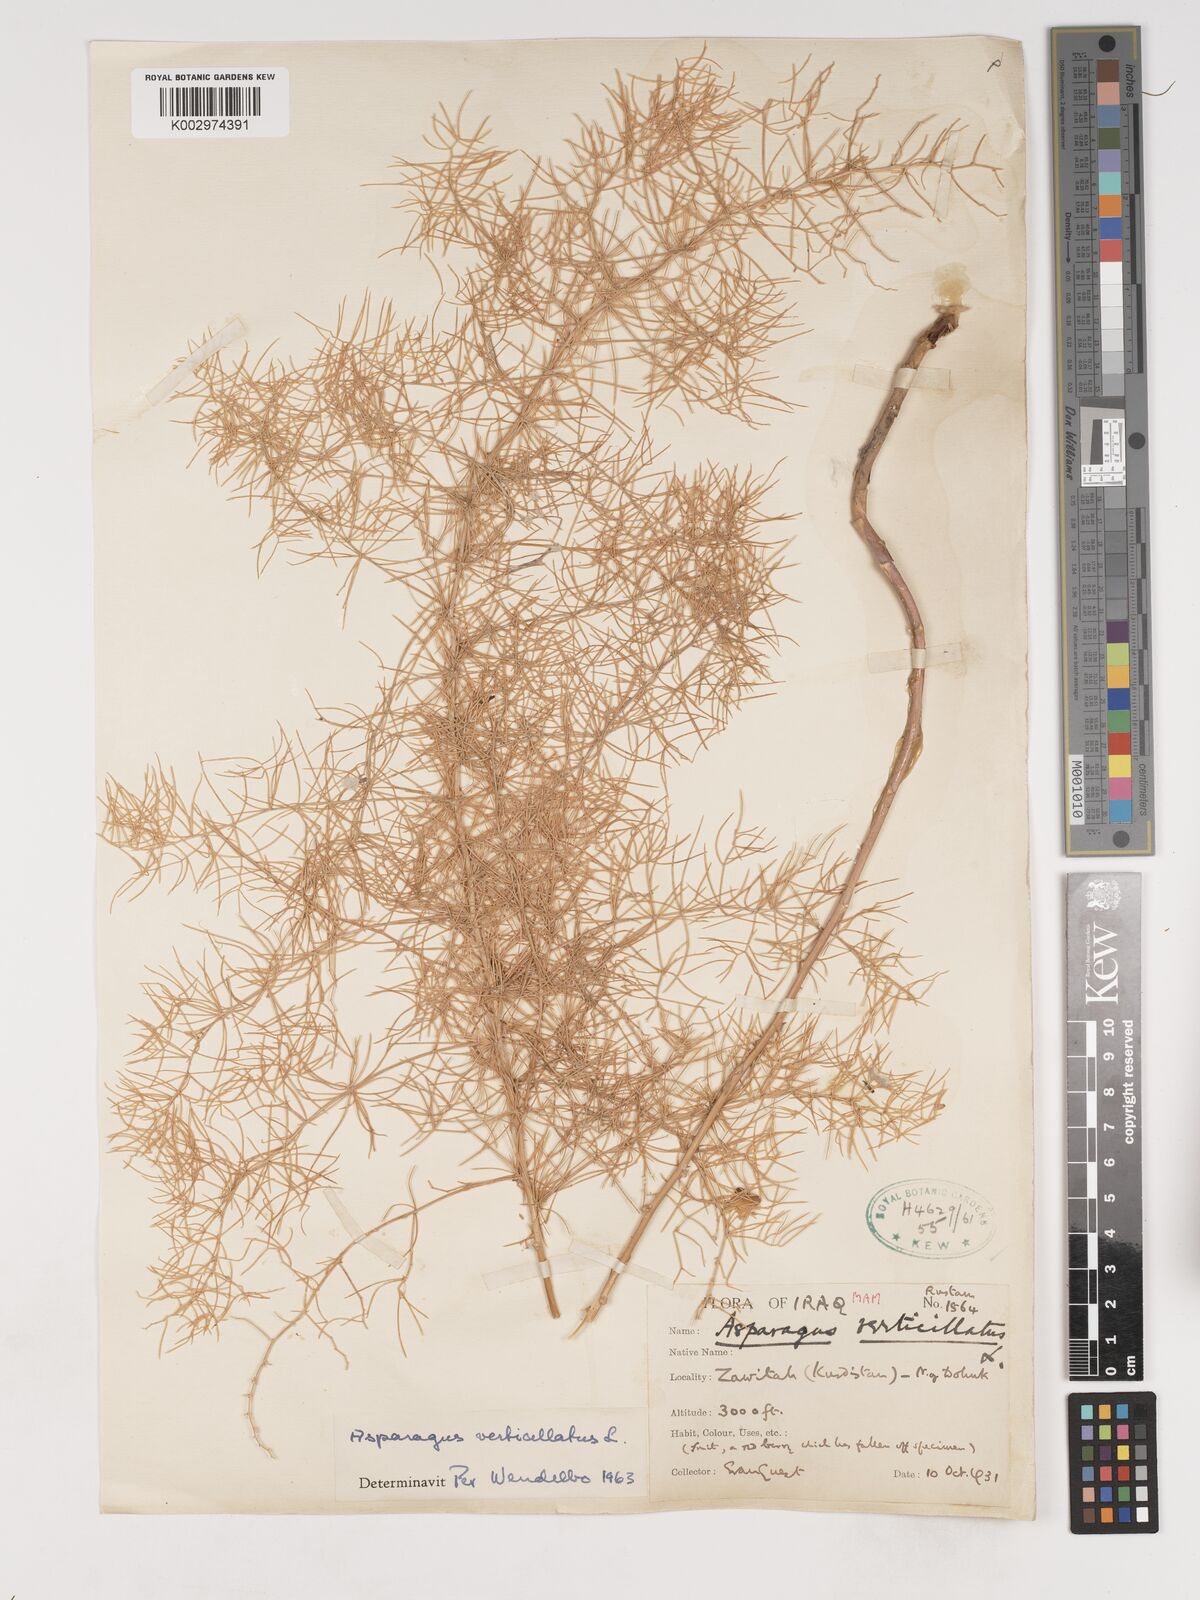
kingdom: Plantae
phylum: Tracheophyta
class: Liliopsida
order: Asparagales
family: Asparagaceae
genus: Asparagus
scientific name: Asparagus verticillatus
